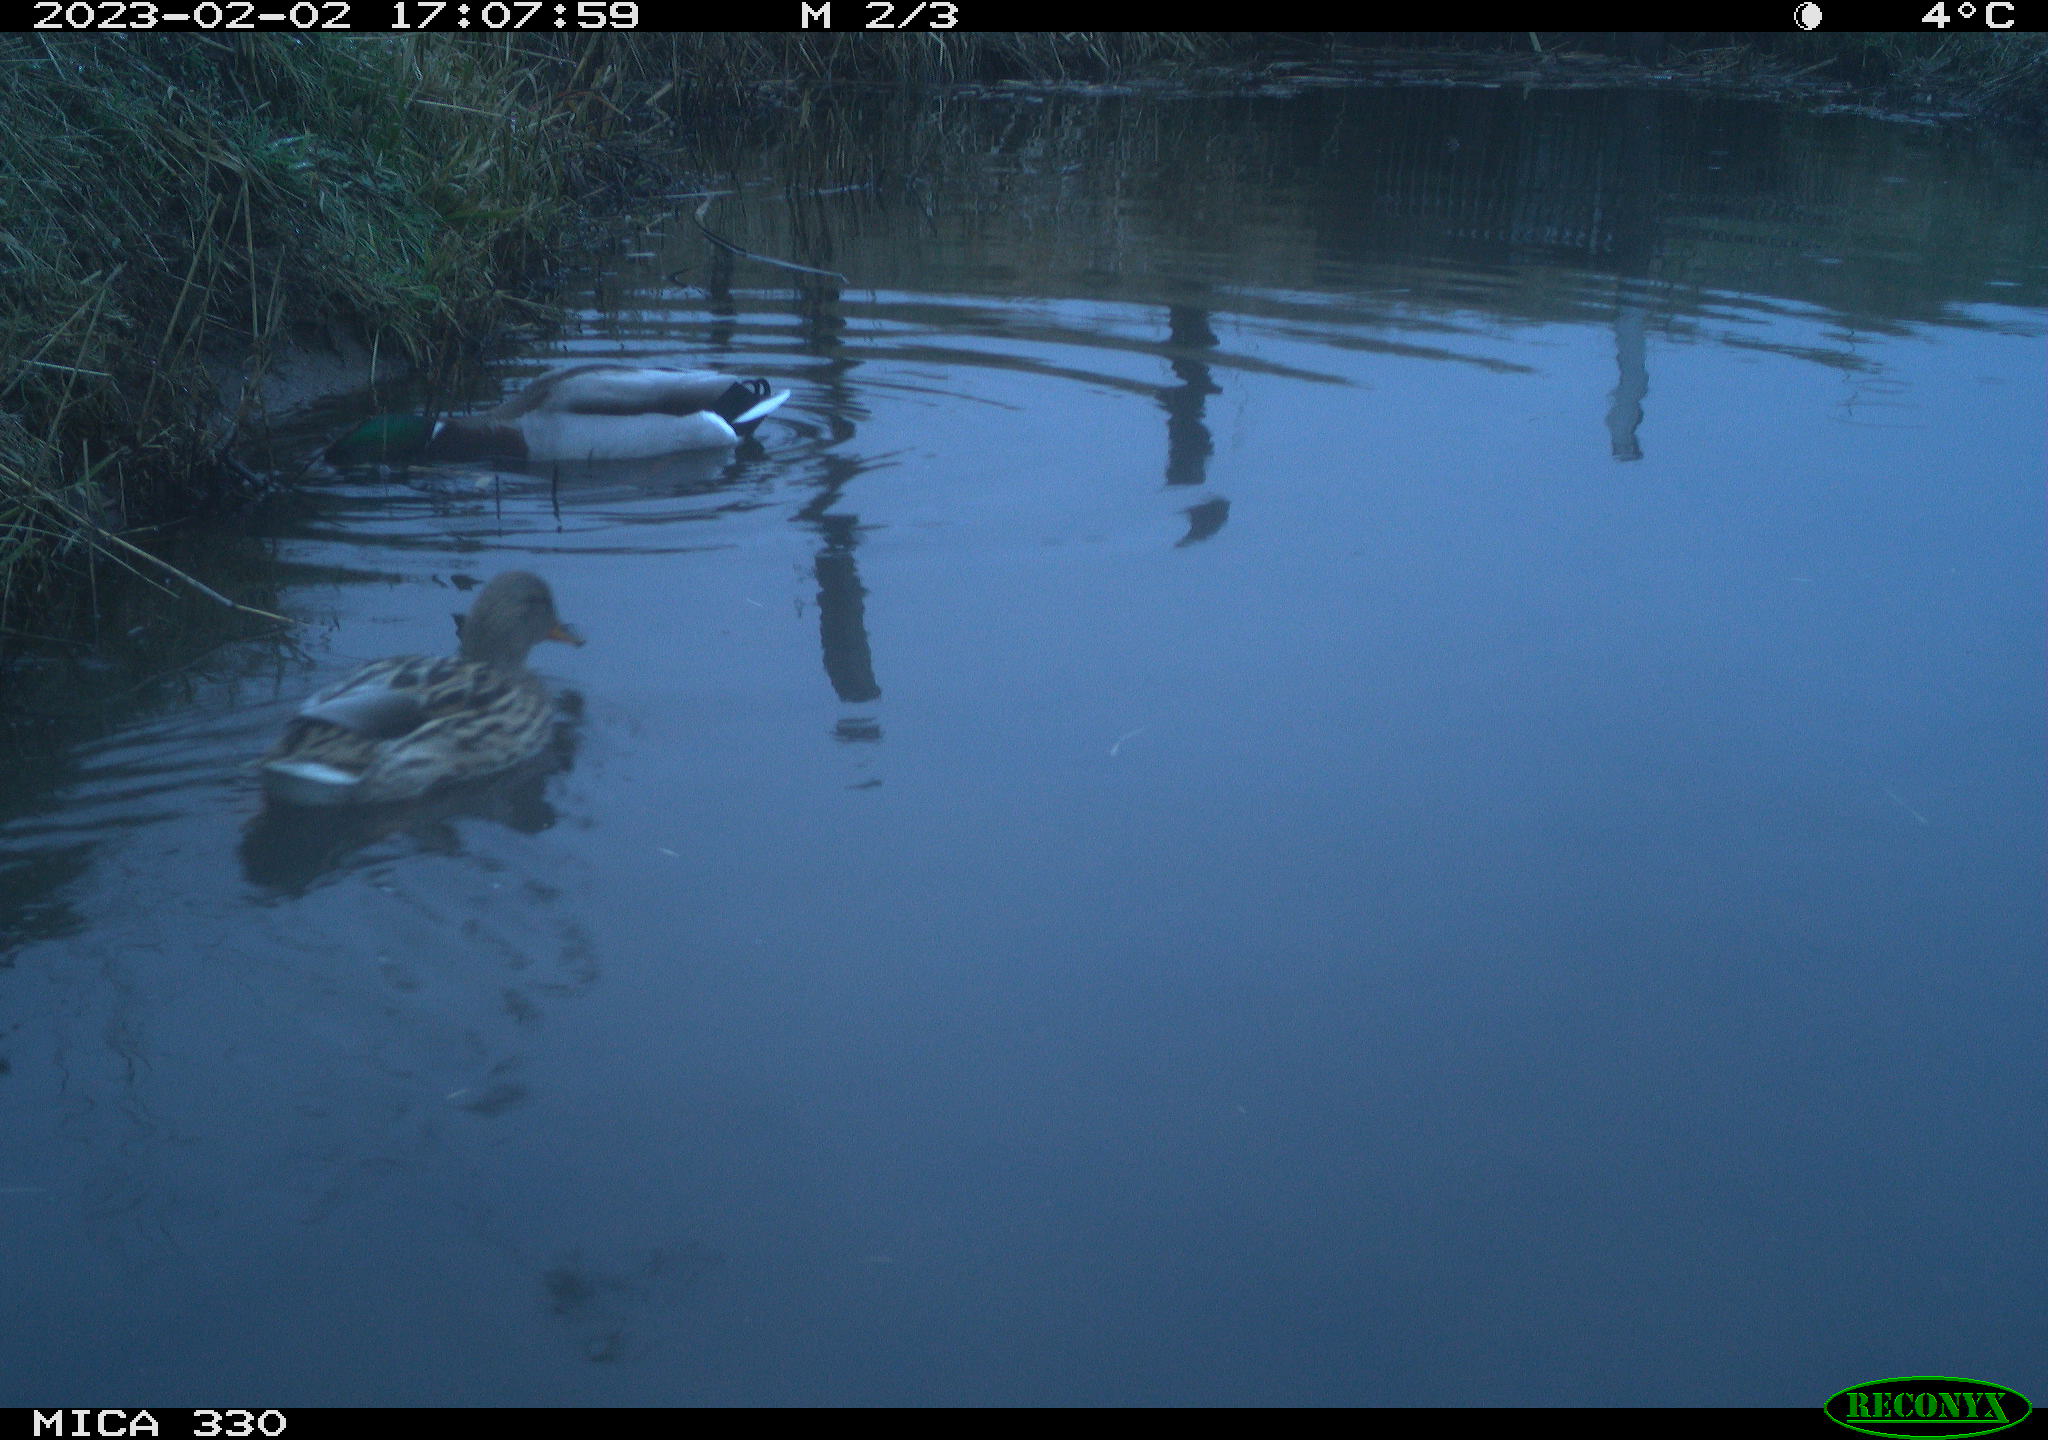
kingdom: Animalia
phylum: Chordata
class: Aves
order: Anseriformes
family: Anatidae
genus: Anas
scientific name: Anas
